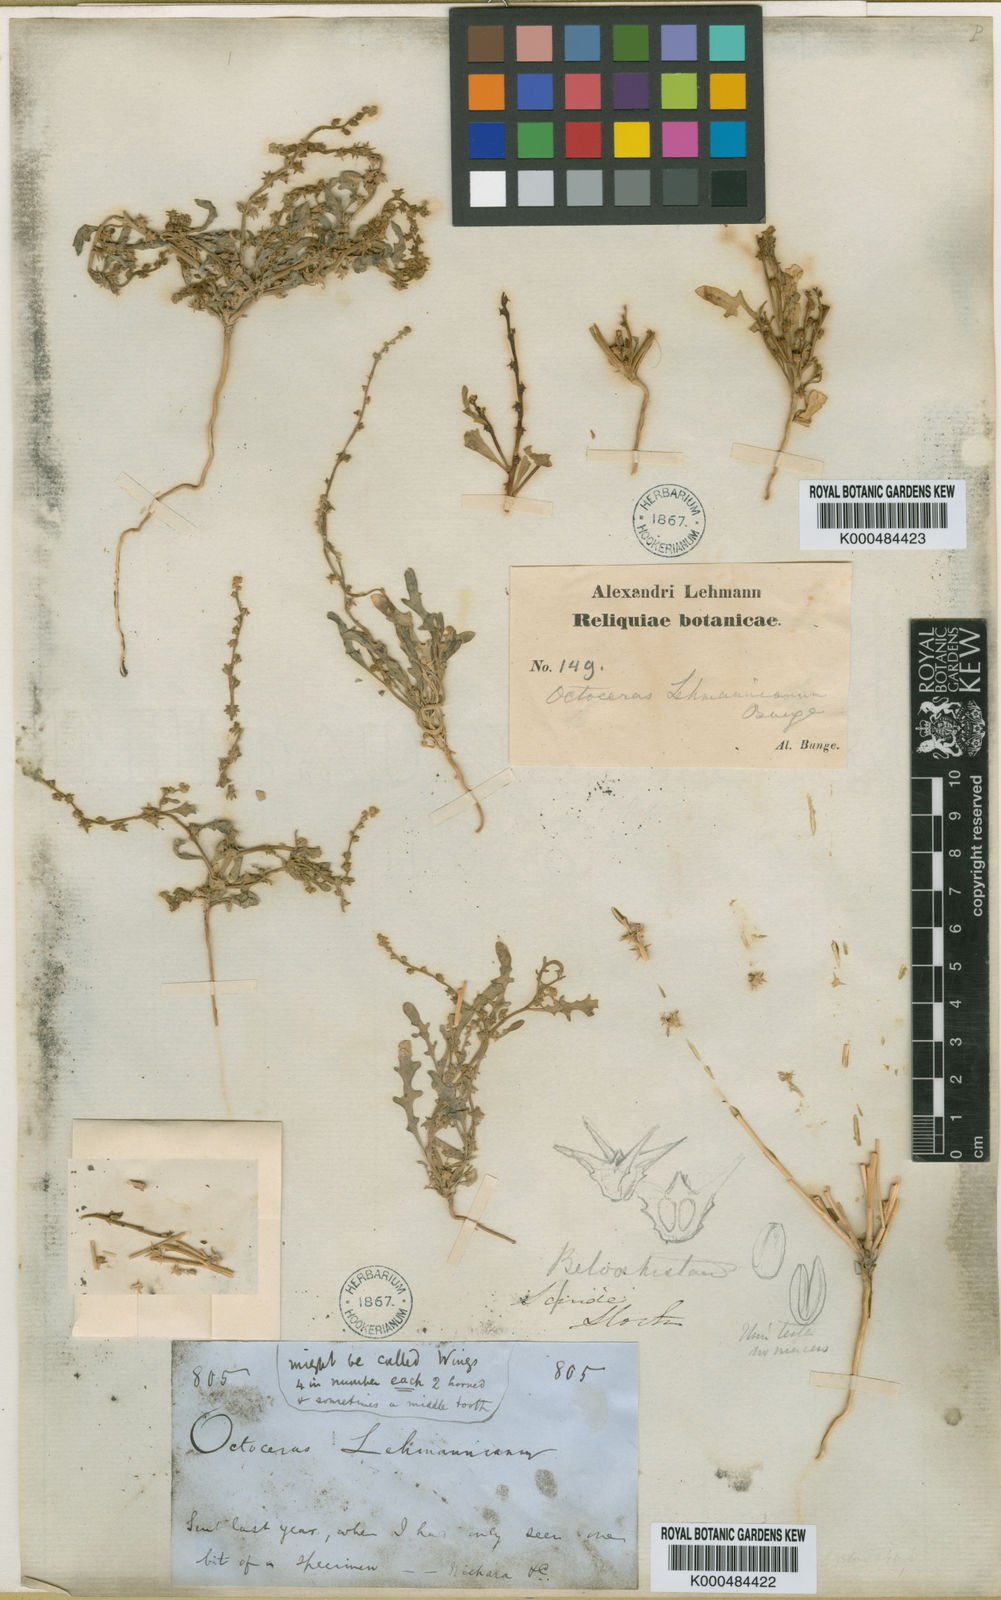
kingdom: Plantae
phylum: Tracheophyta
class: Magnoliopsida
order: Brassicales
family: Brassicaceae
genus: Octoceras
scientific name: Octoceras lehmannianum
